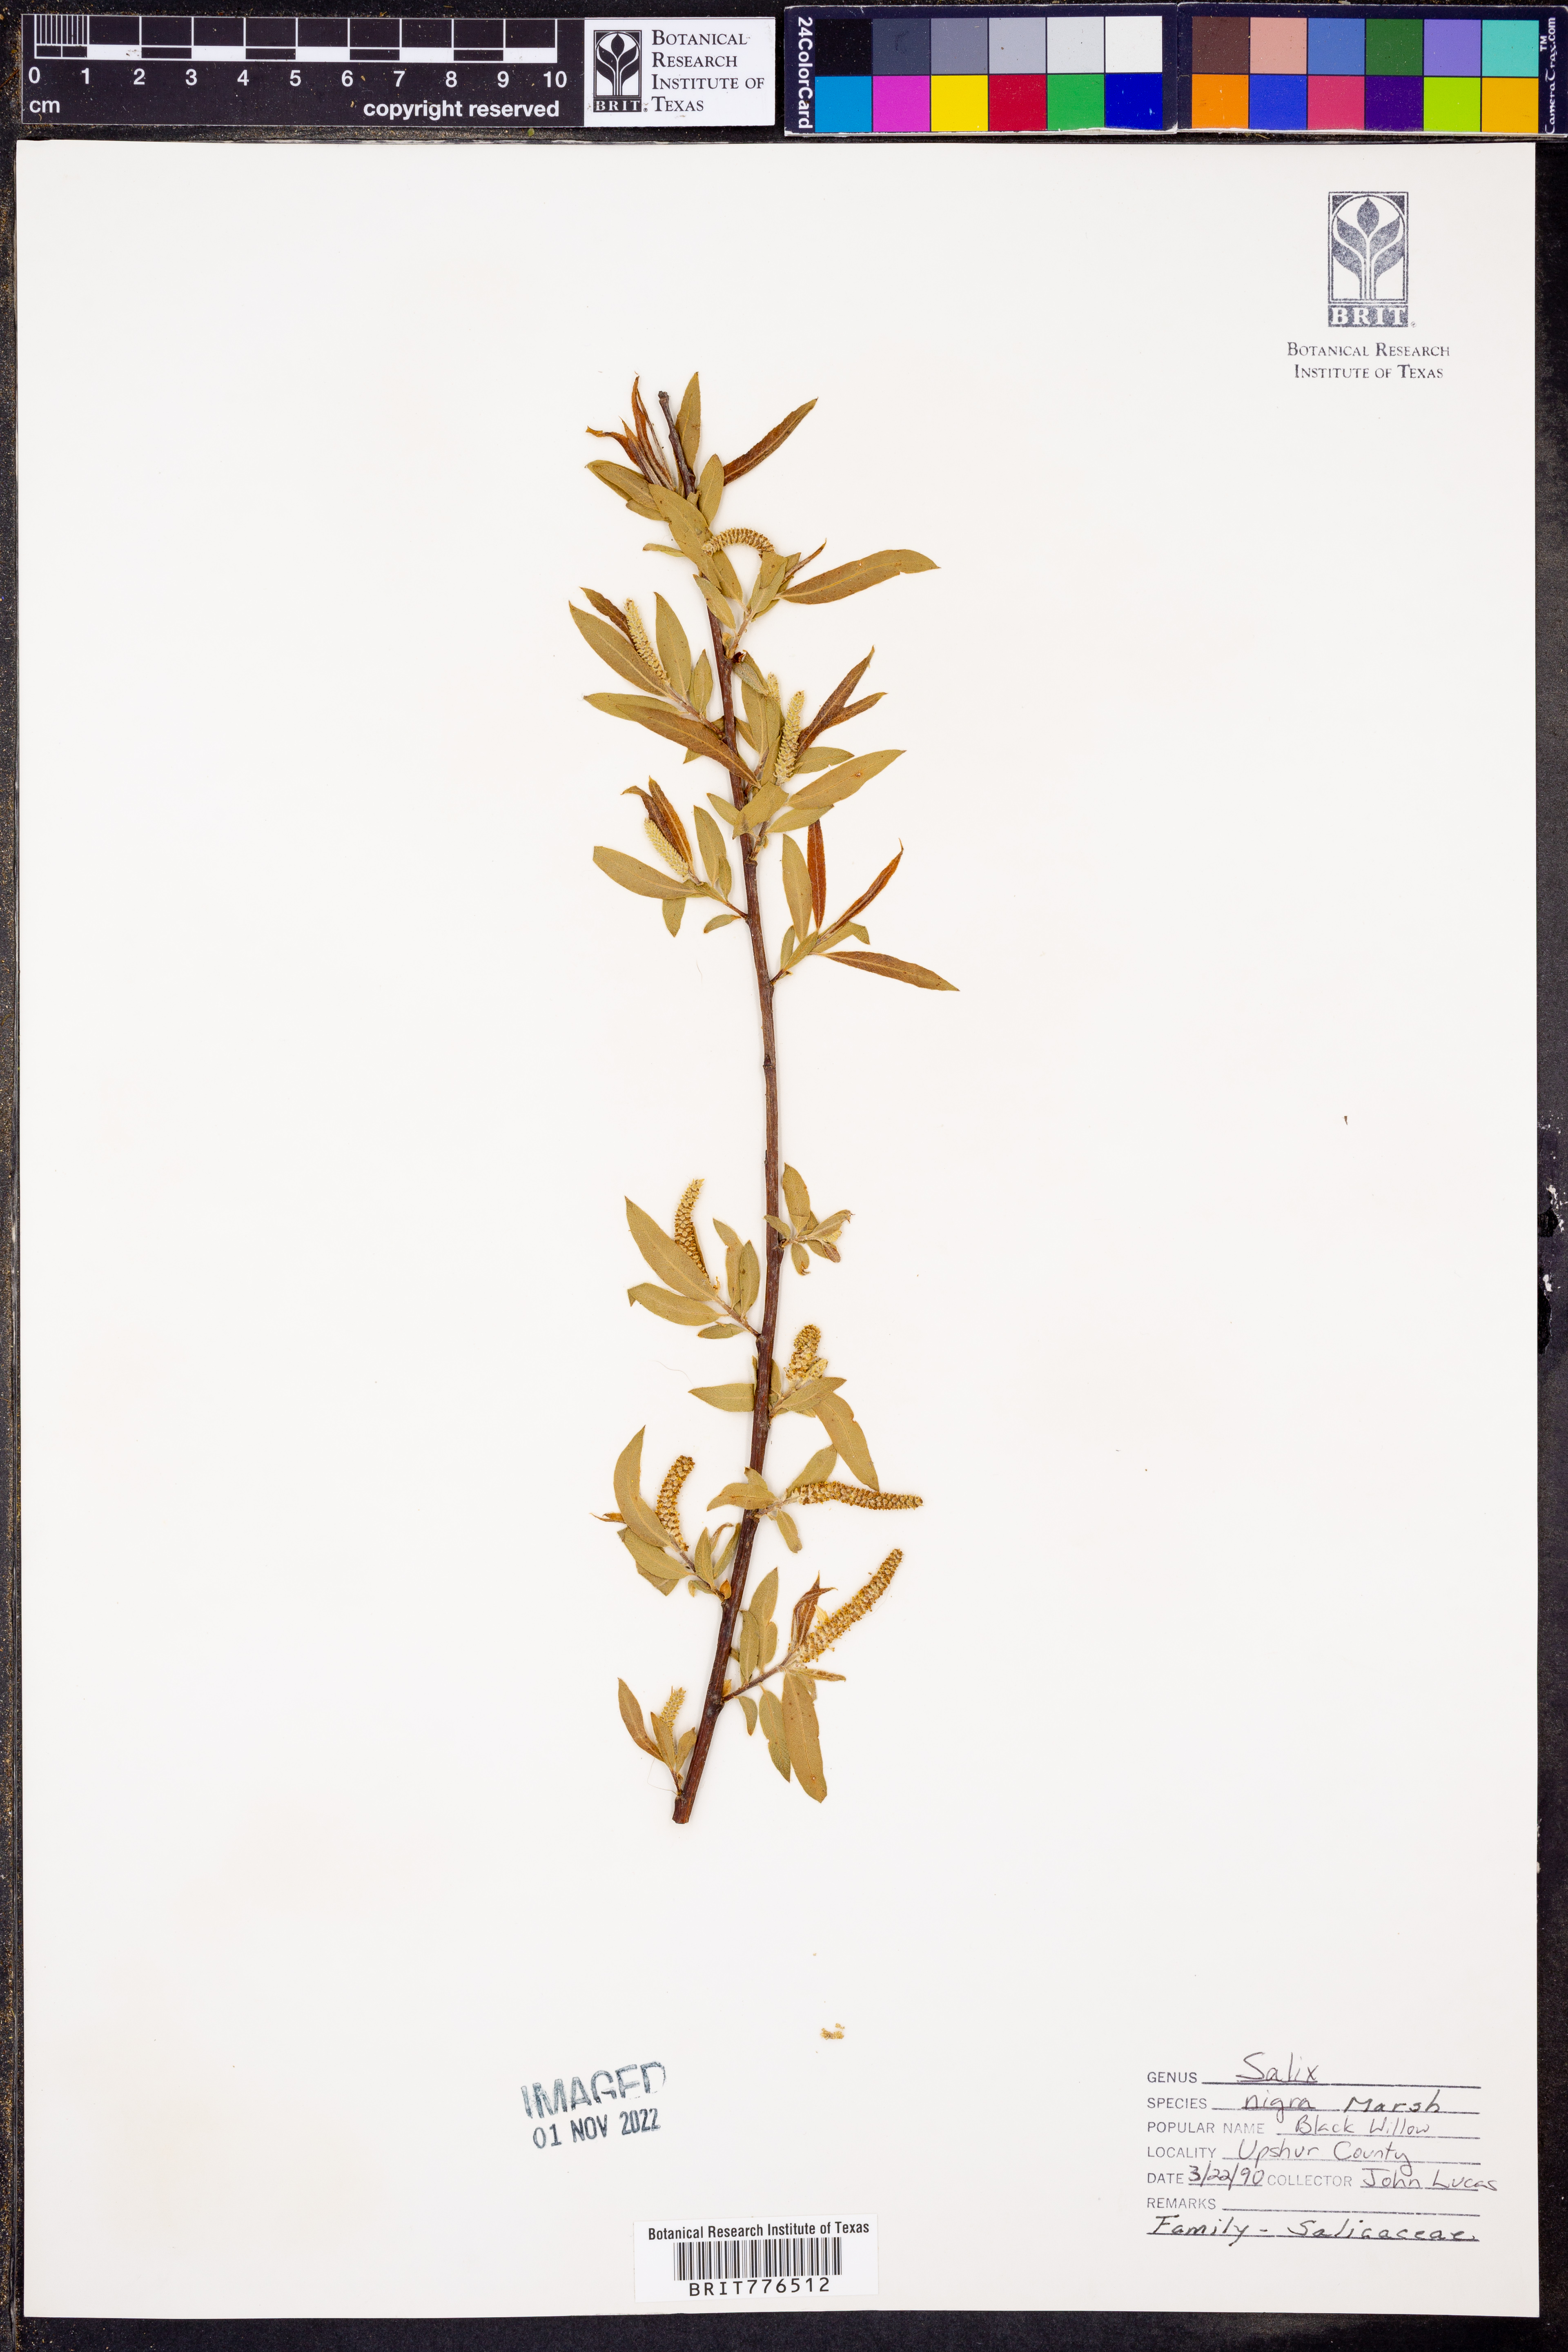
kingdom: Plantae
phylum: Tracheophyta
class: Magnoliopsida
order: Malpighiales
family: Salicaceae
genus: Salix
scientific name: Salix nigra
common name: Black willow
